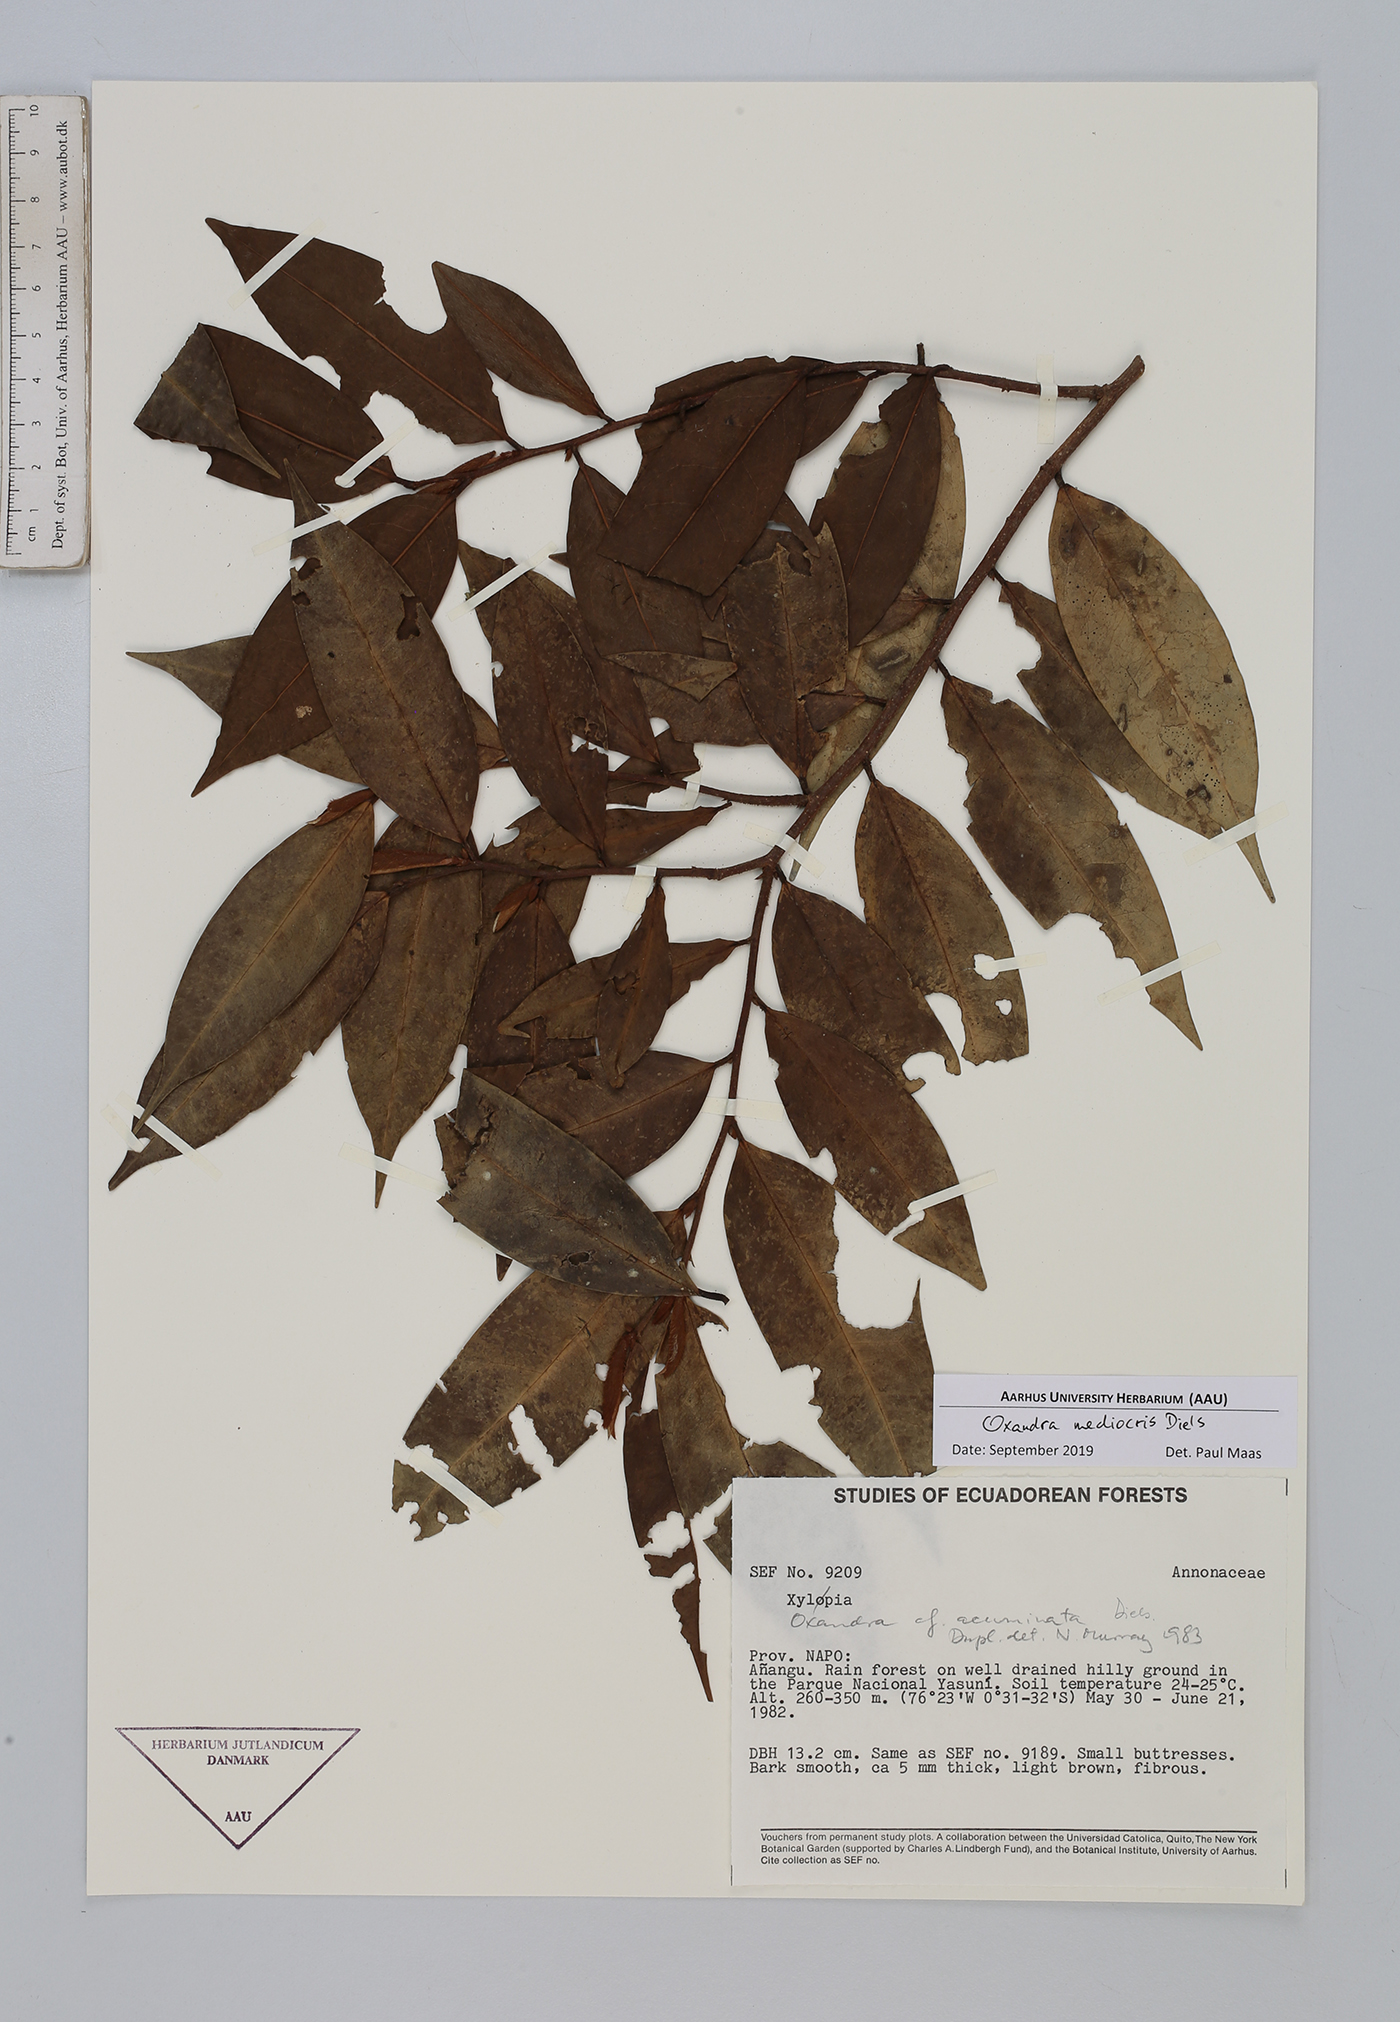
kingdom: Plantae
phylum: Tracheophyta
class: Magnoliopsida
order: Magnoliales
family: Annonaceae
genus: Oxandra
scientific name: Oxandra mediocris
